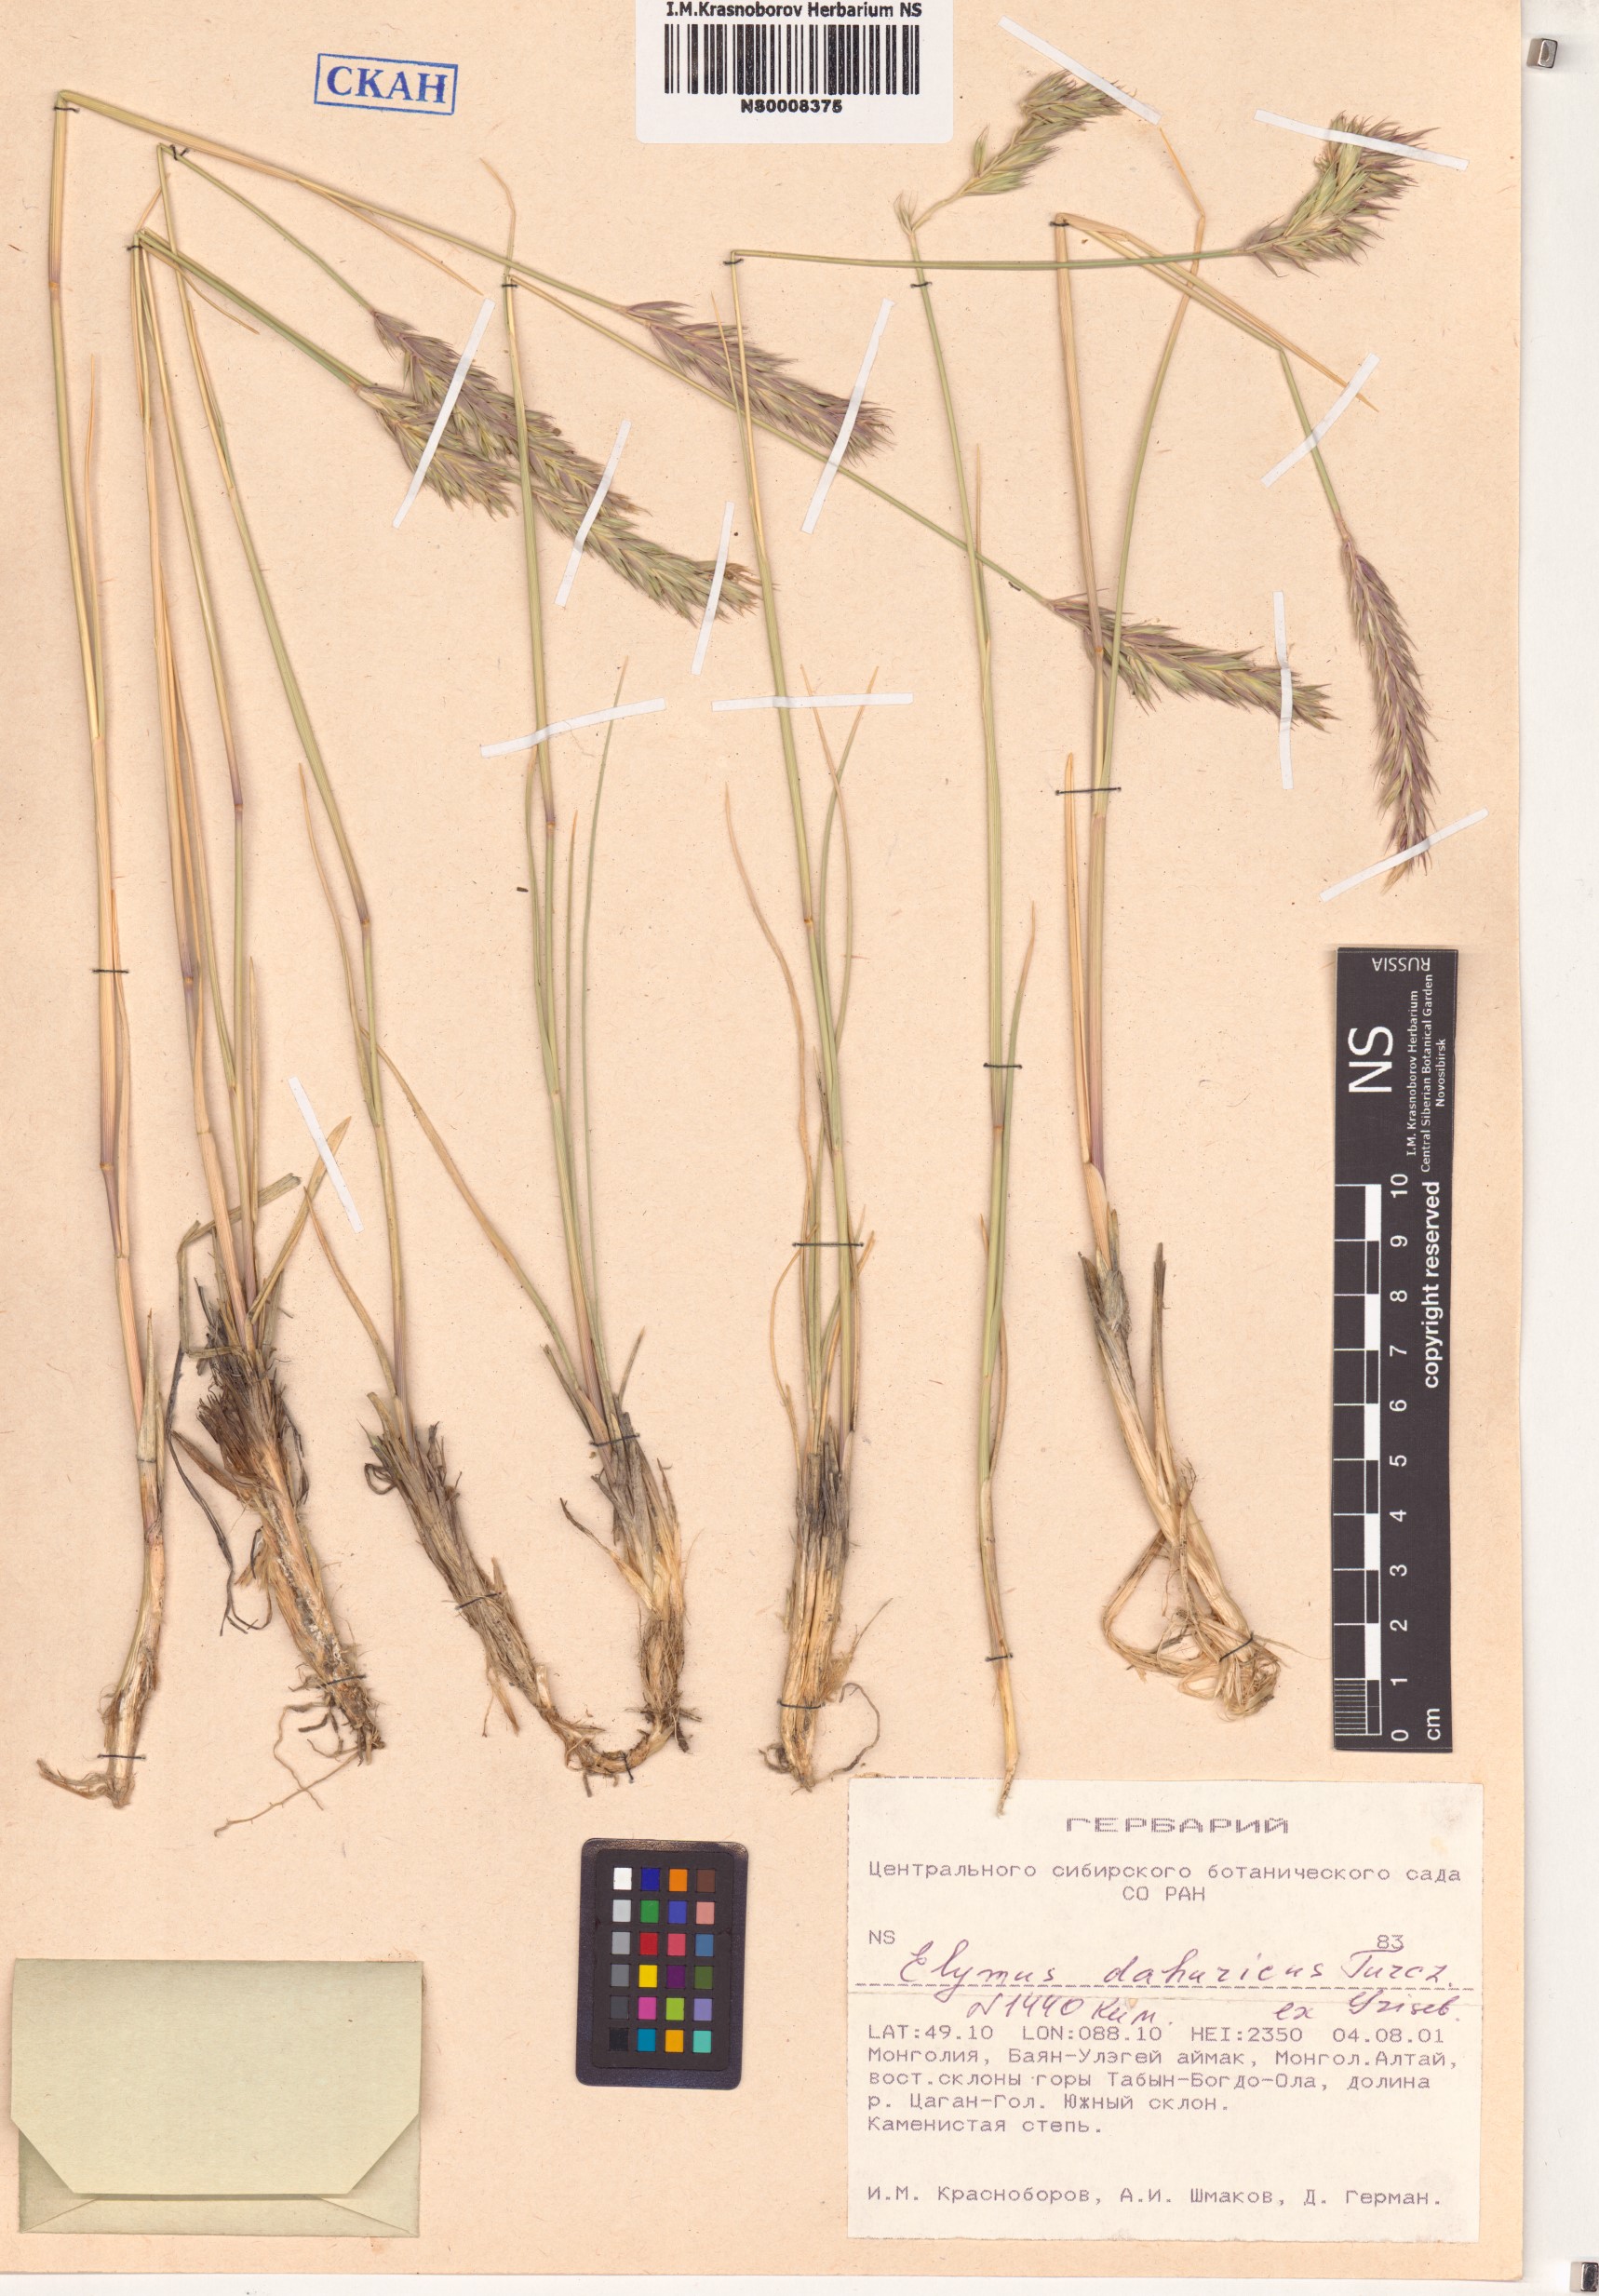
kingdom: Plantae
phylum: Tracheophyta
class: Liliopsida
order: Poales
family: Poaceae
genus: Elymus
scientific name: Elymus dahuricus
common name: Dahurian wild rye
